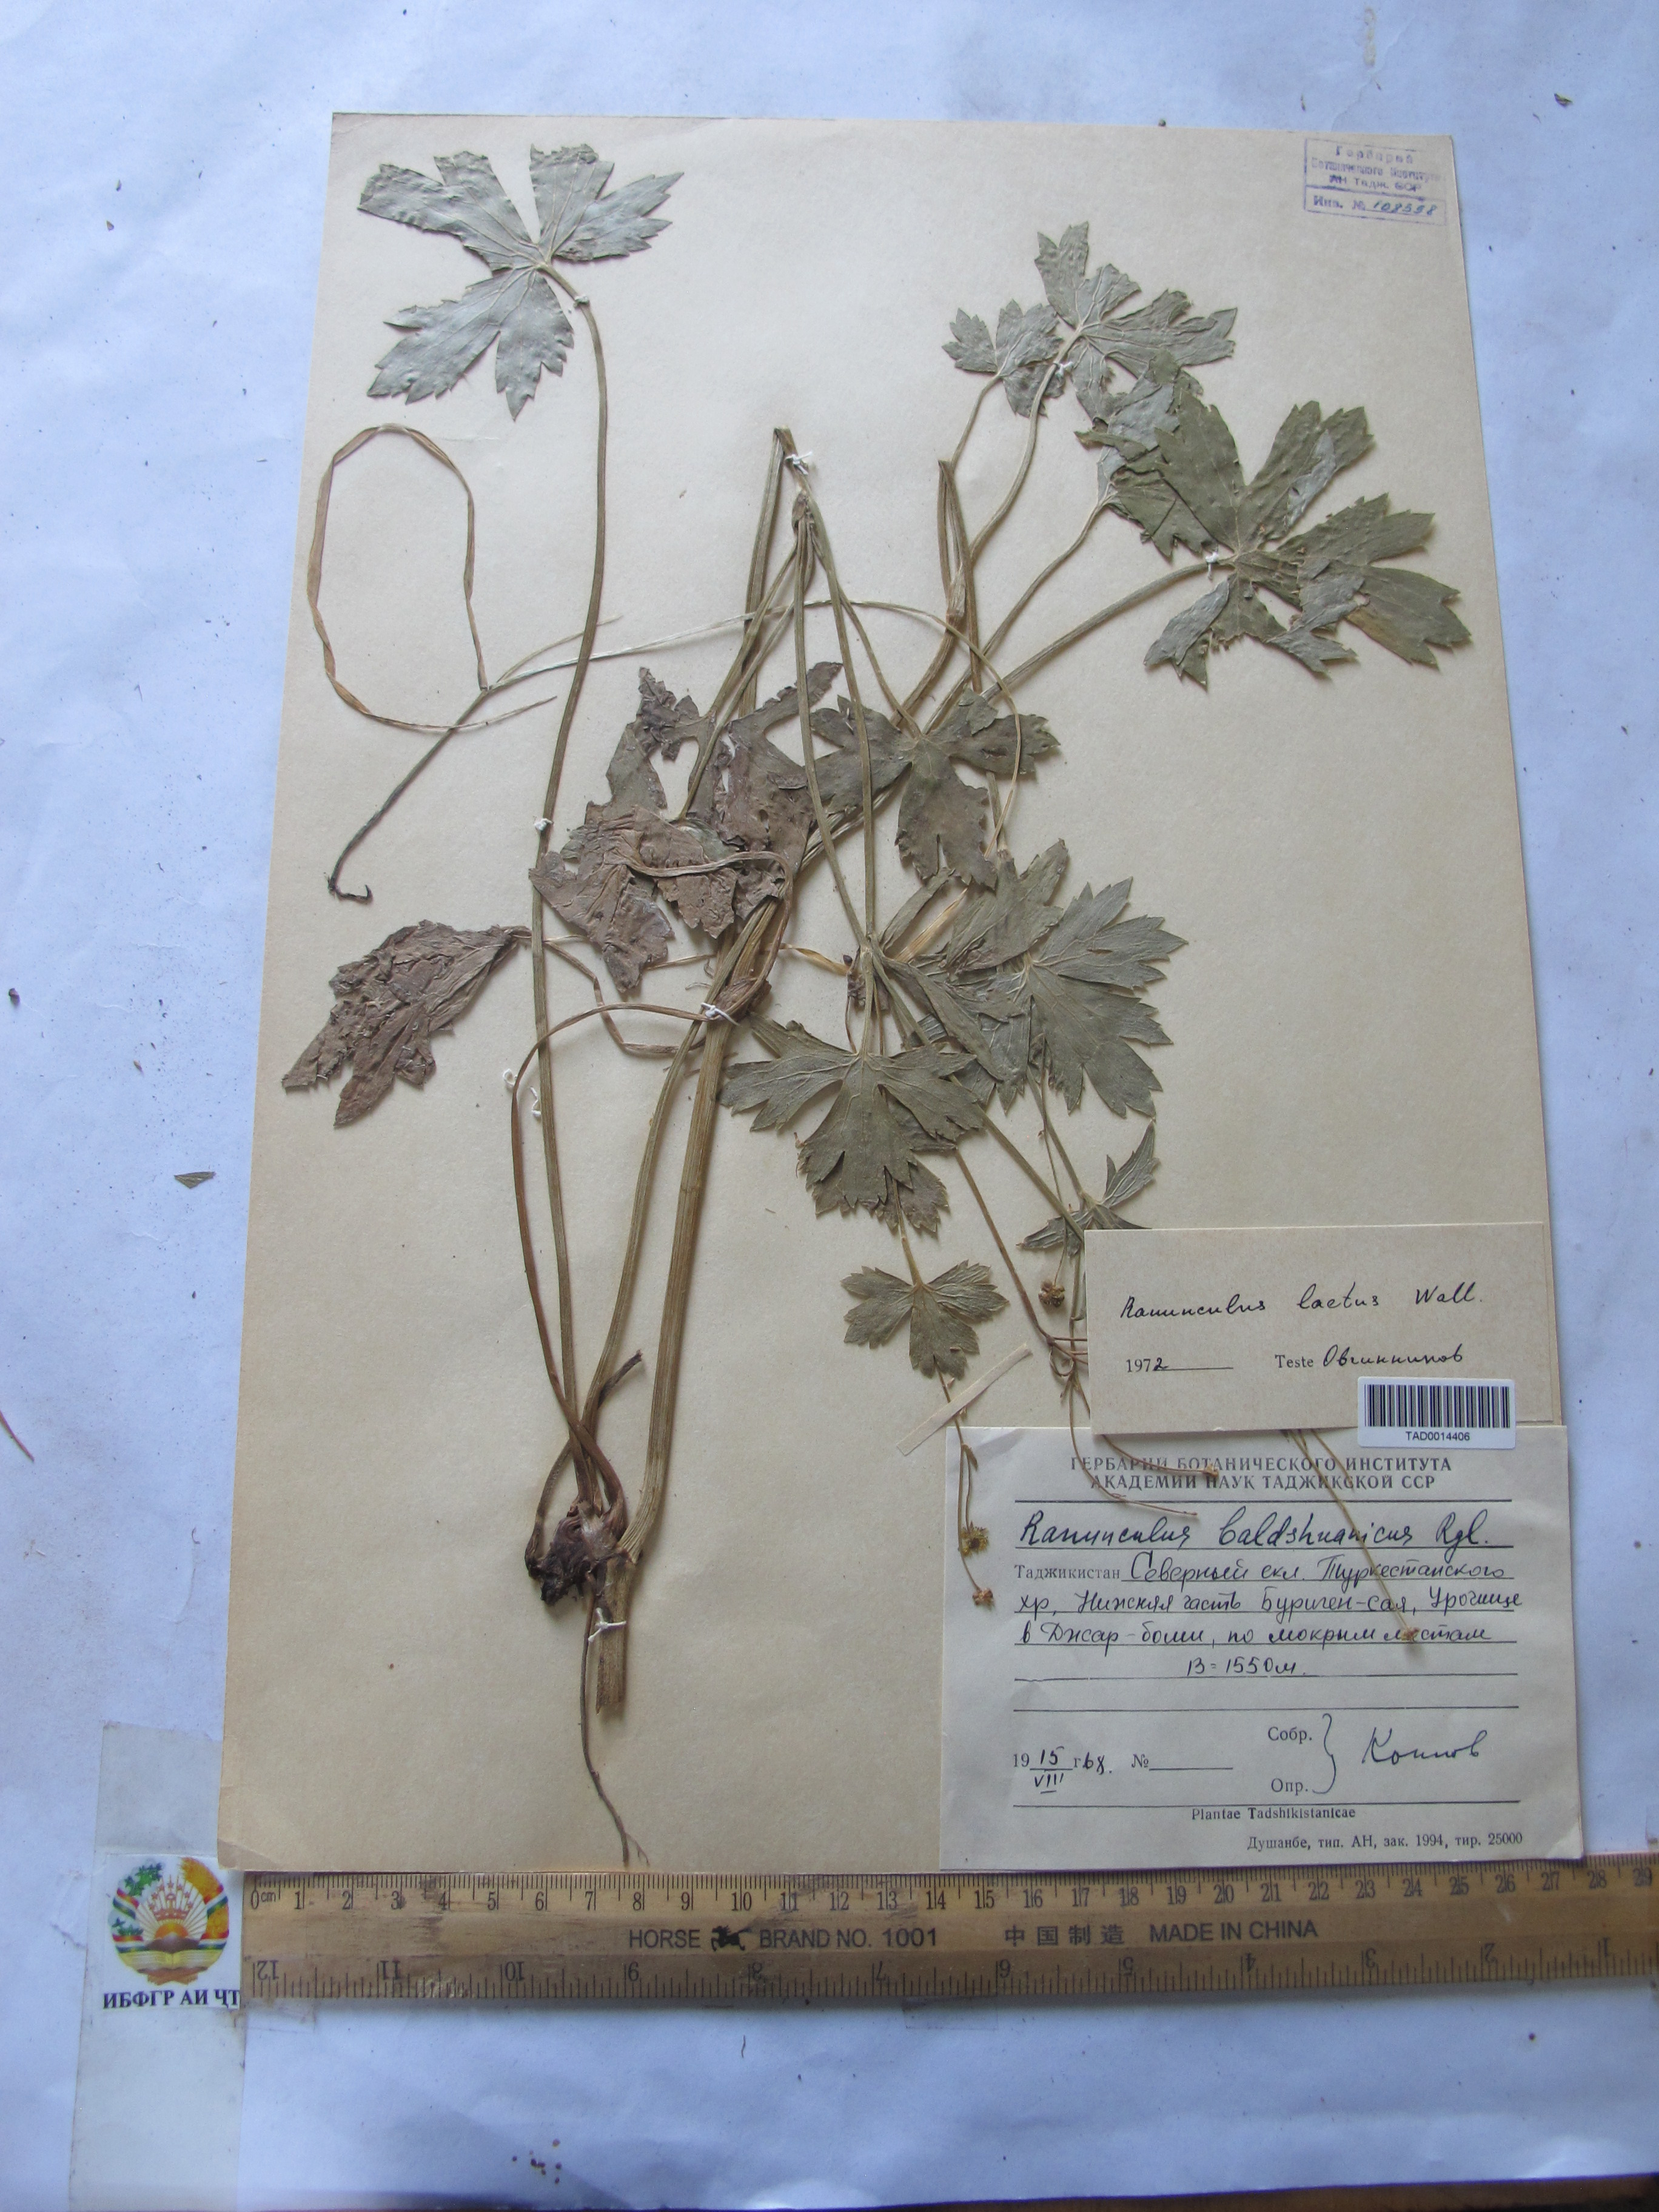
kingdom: Plantae
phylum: Tracheophyta
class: Magnoliopsida
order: Ranunculales
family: Ranunculaceae
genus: Ranunculus
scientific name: Ranunculus distans
